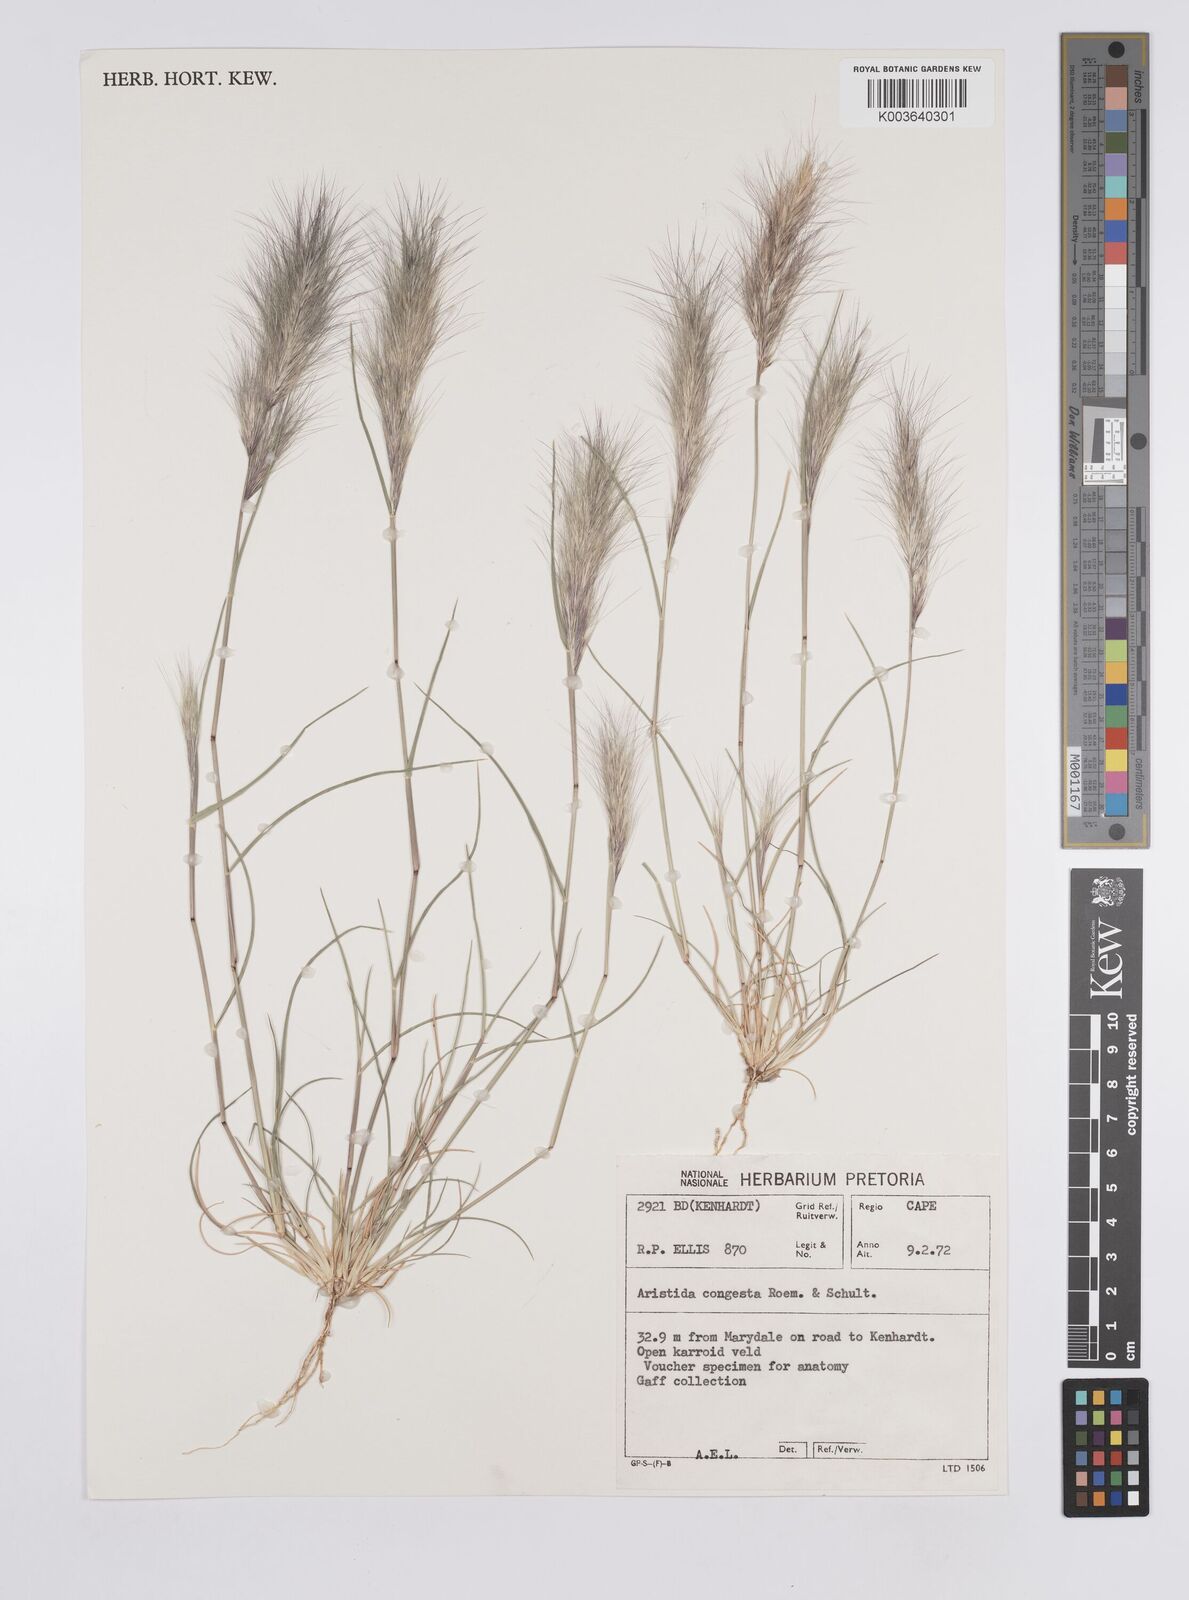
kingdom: Plantae
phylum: Tracheophyta
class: Liliopsida
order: Poales
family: Poaceae
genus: Aristida
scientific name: Aristida congesta
